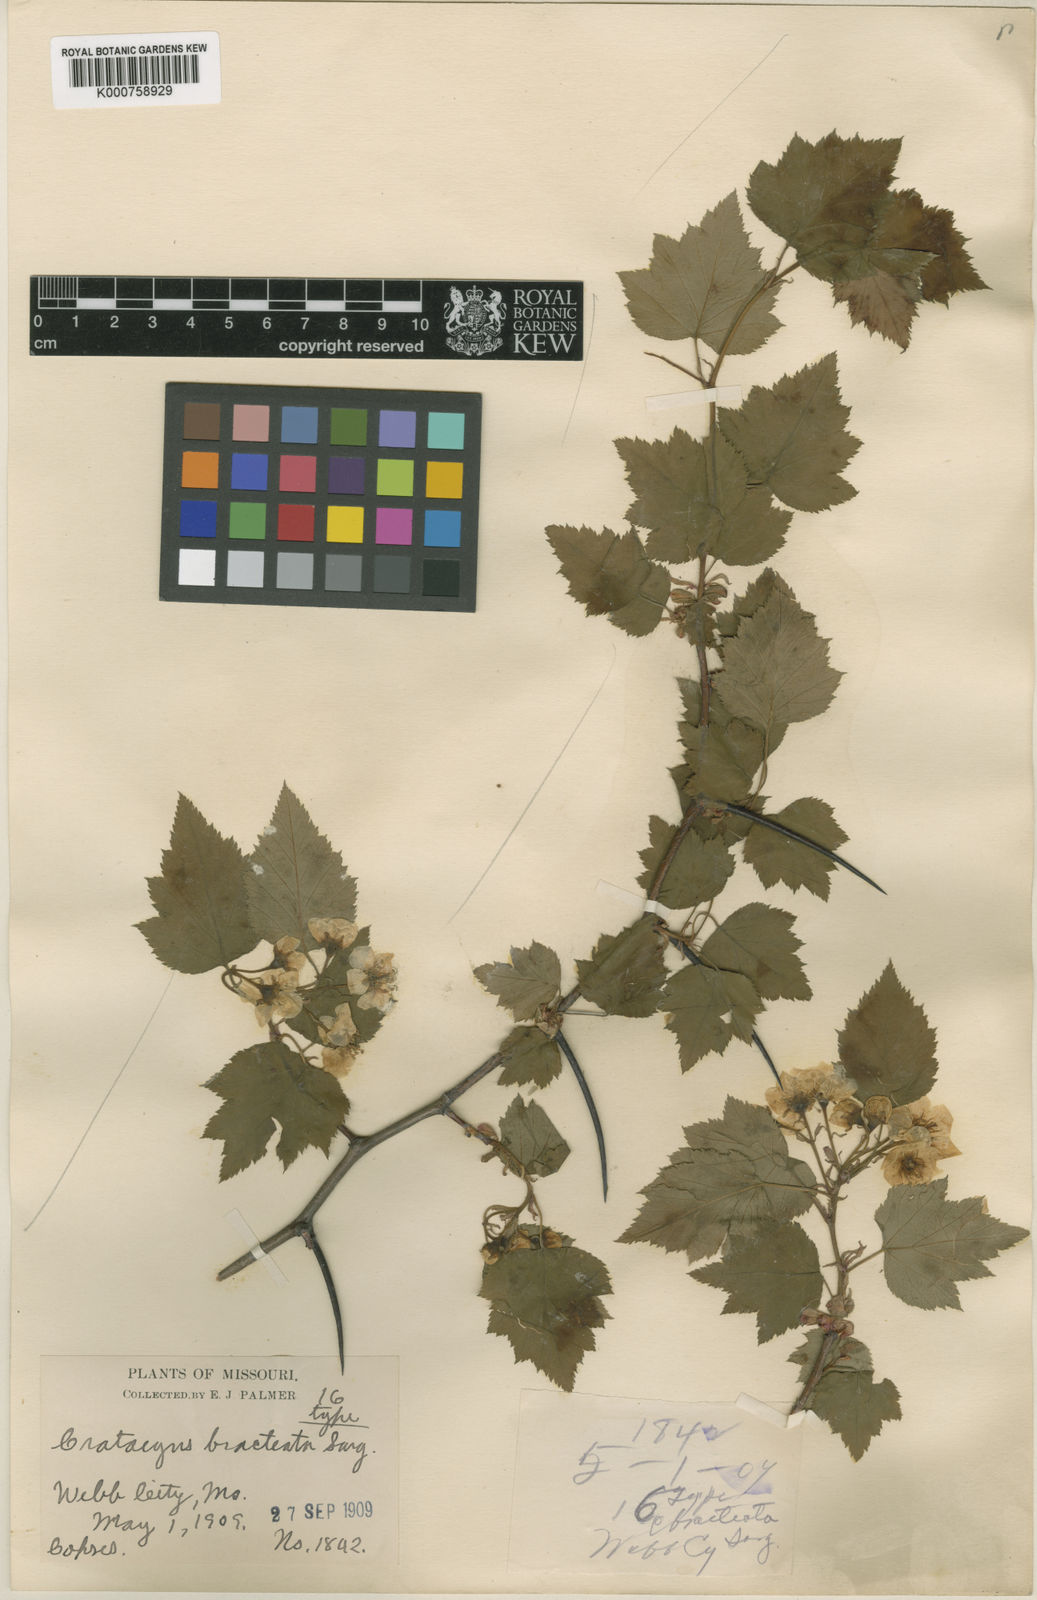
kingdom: Plantae
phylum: Tracheophyta
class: Magnoliopsida
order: Rosales
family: Rosaceae
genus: Crataegus
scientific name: Crataegus
